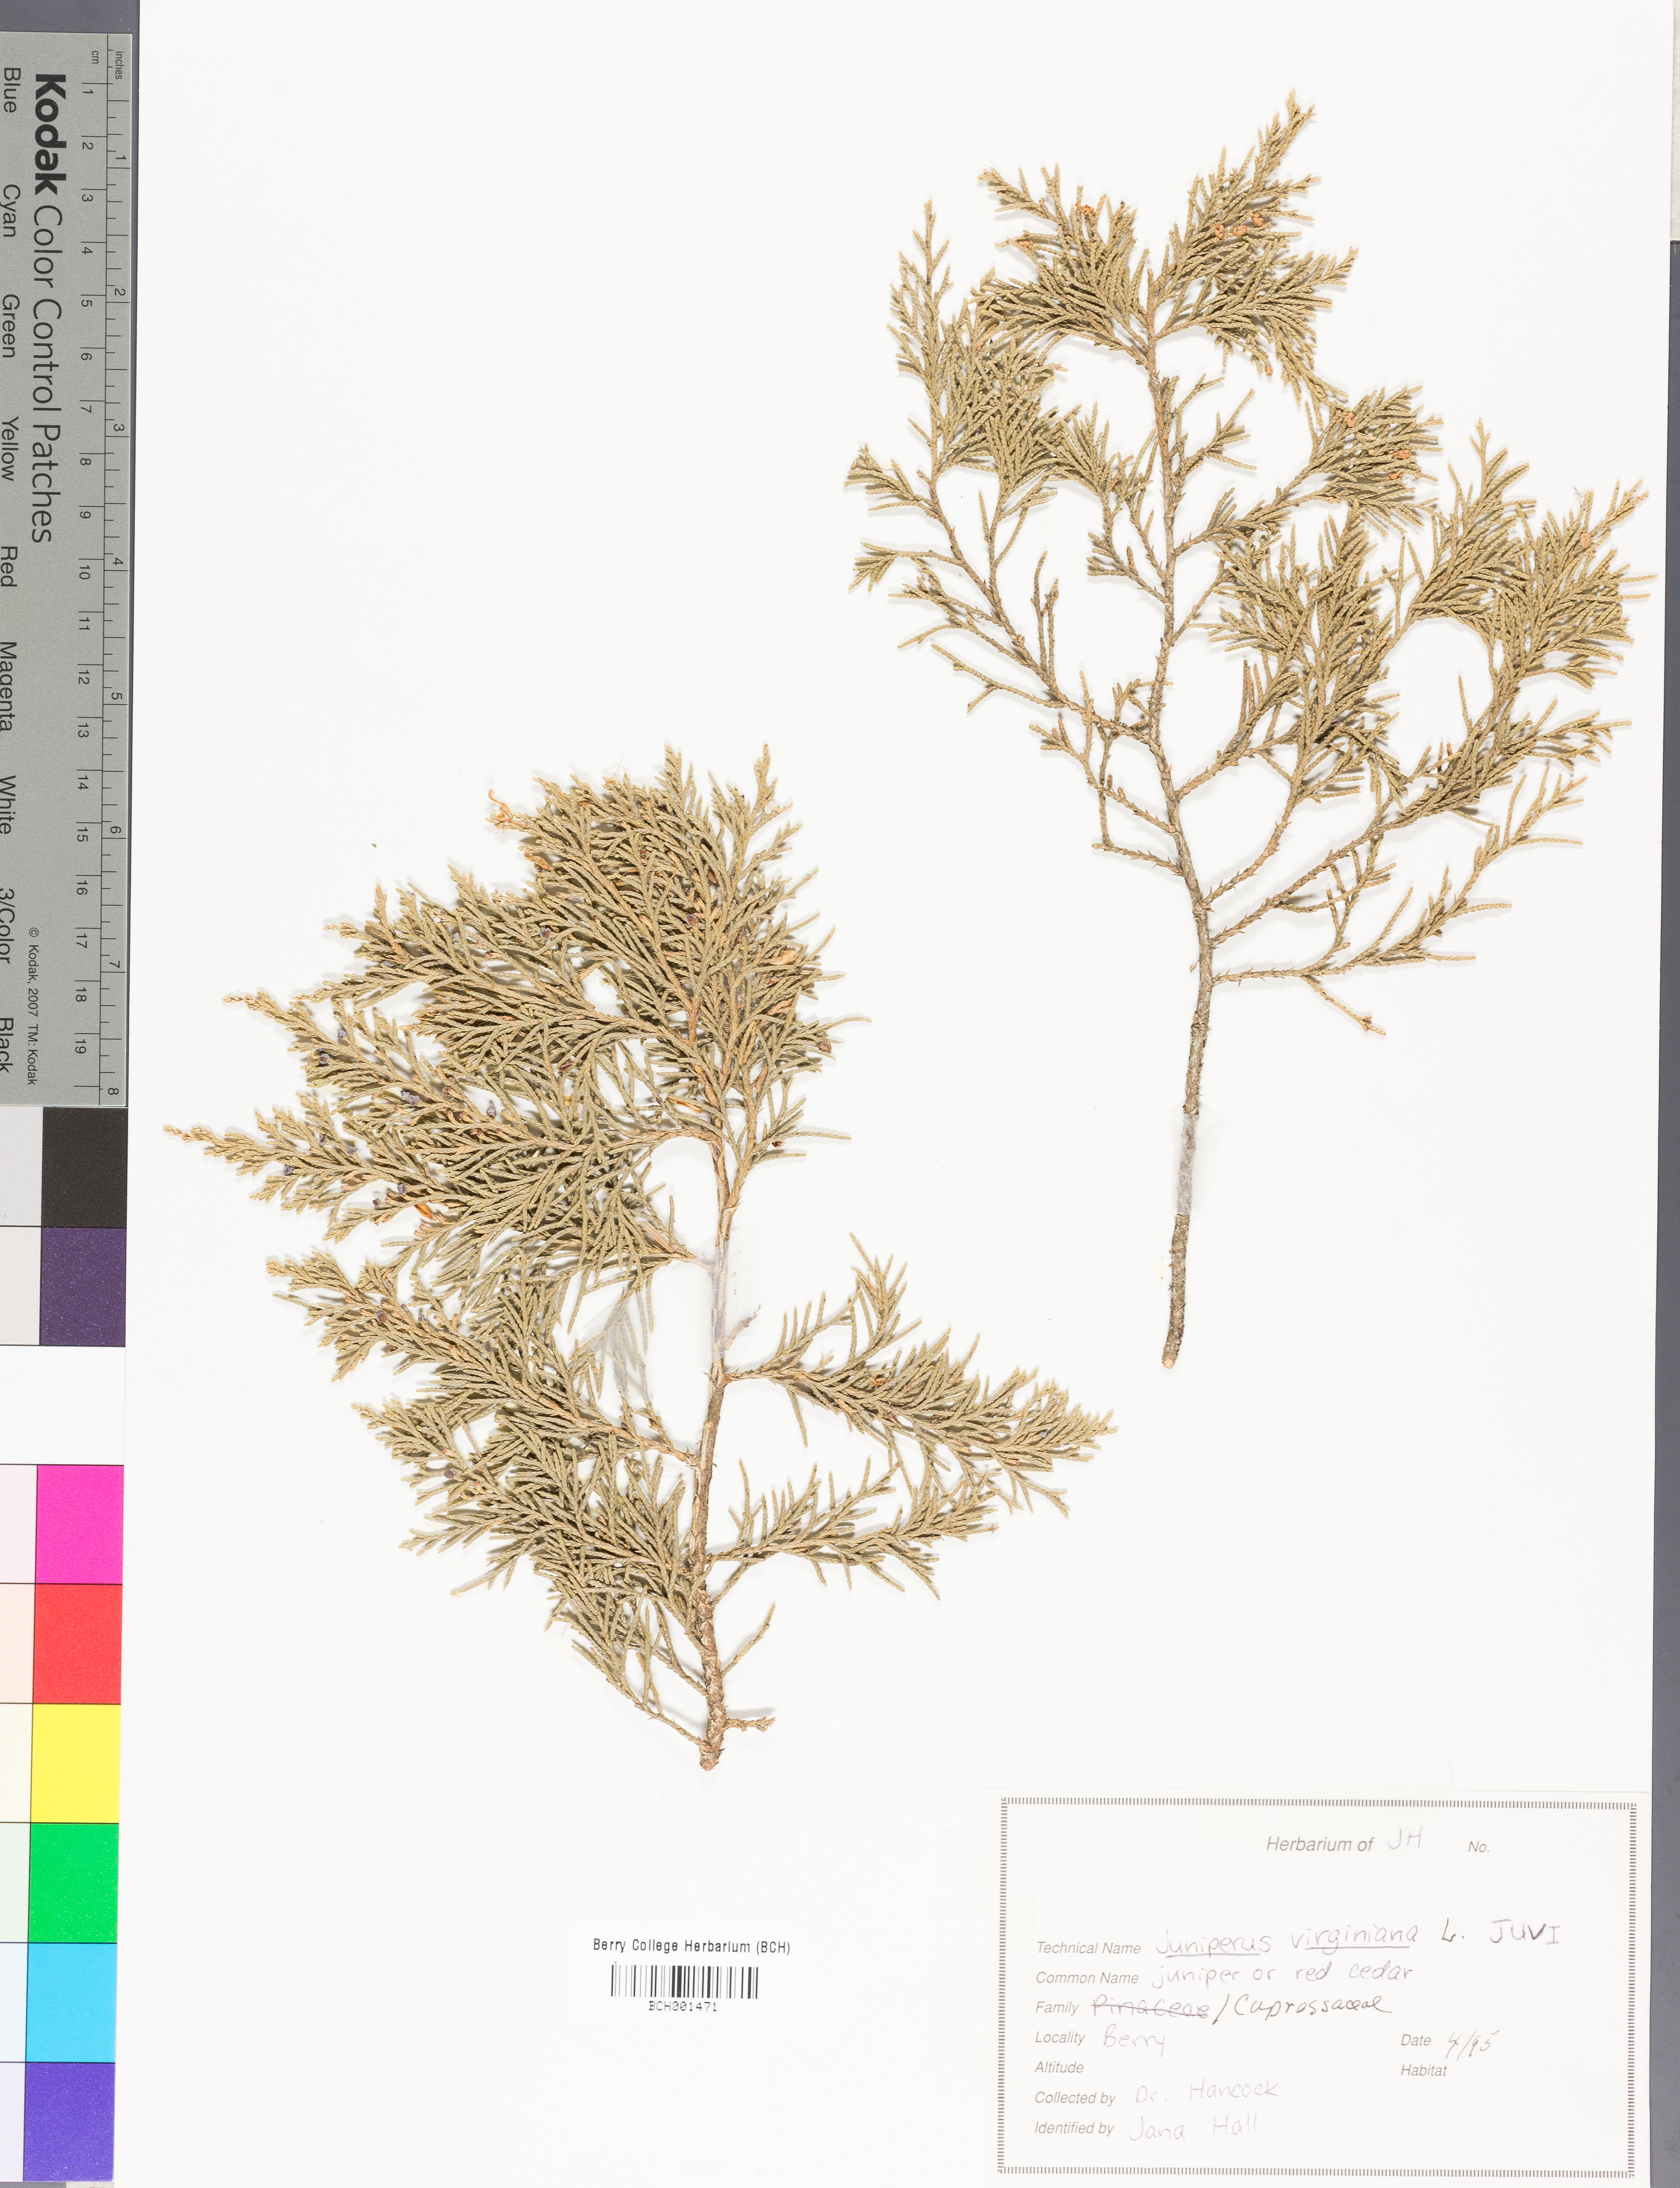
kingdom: Plantae
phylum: Tracheophyta
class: Pinopsida
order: Pinales
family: Cupressaceae
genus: Juniperus
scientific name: Juniperus virginiana
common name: Red juniper
